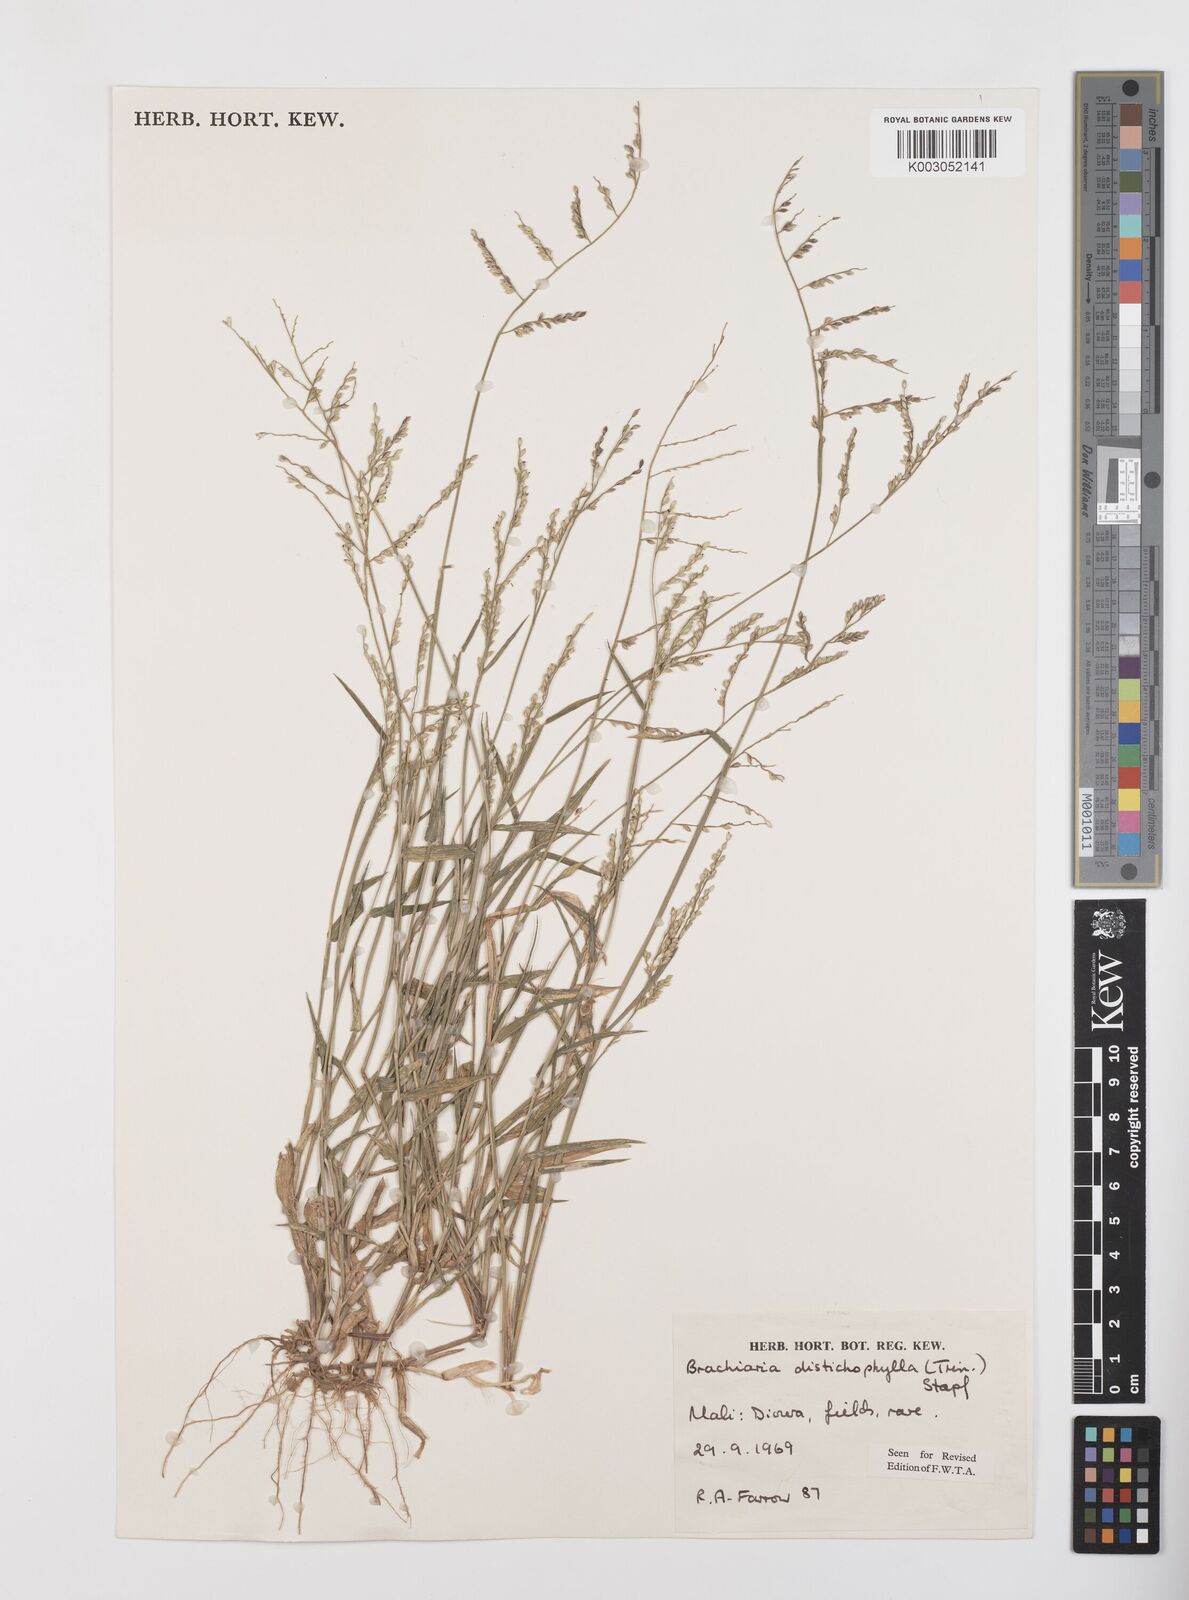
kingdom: Plantae
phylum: Tracheophyta
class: Liliopsida
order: Poales
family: Poaceae
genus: Urochloa
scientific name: Urochloa villosa
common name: Hairy signalgrass
